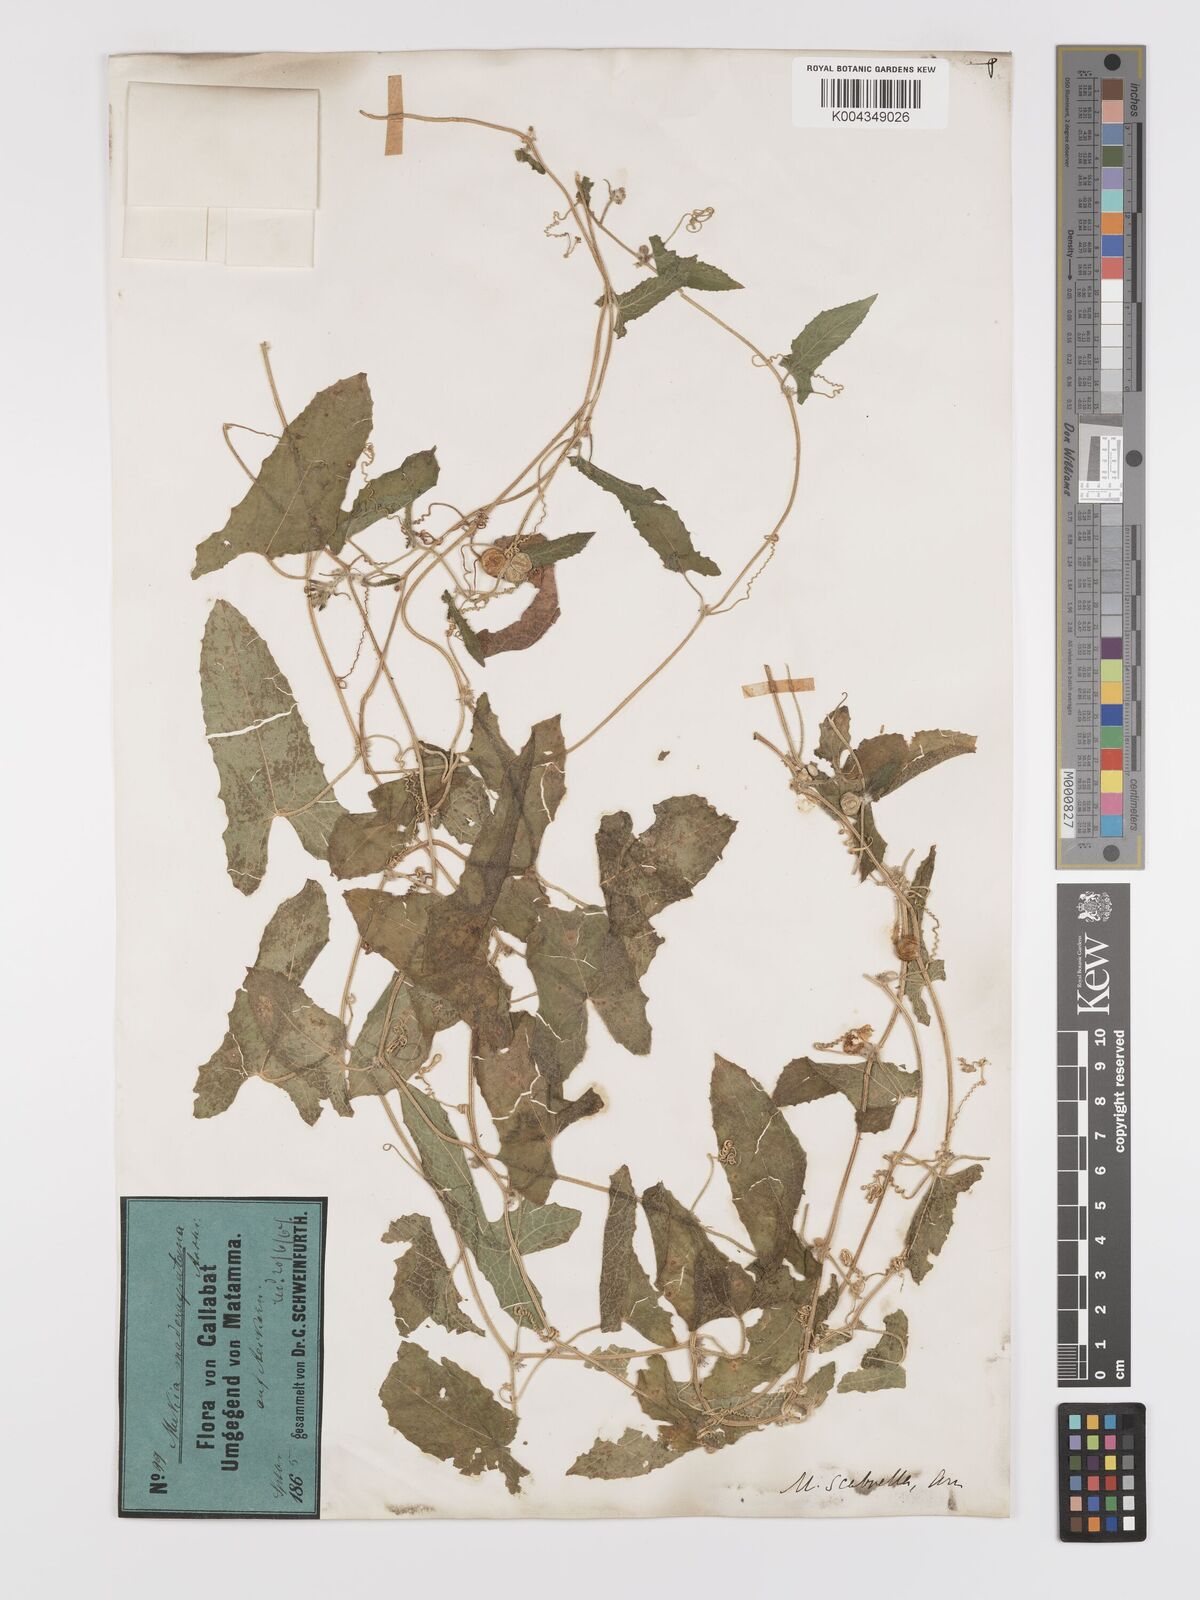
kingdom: Plantae
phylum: Tracheophyta
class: Magnoliopsida
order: Cucurbitales
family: Cucurbitaceae
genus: Cucumis
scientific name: Cucumis maderaspatanus
